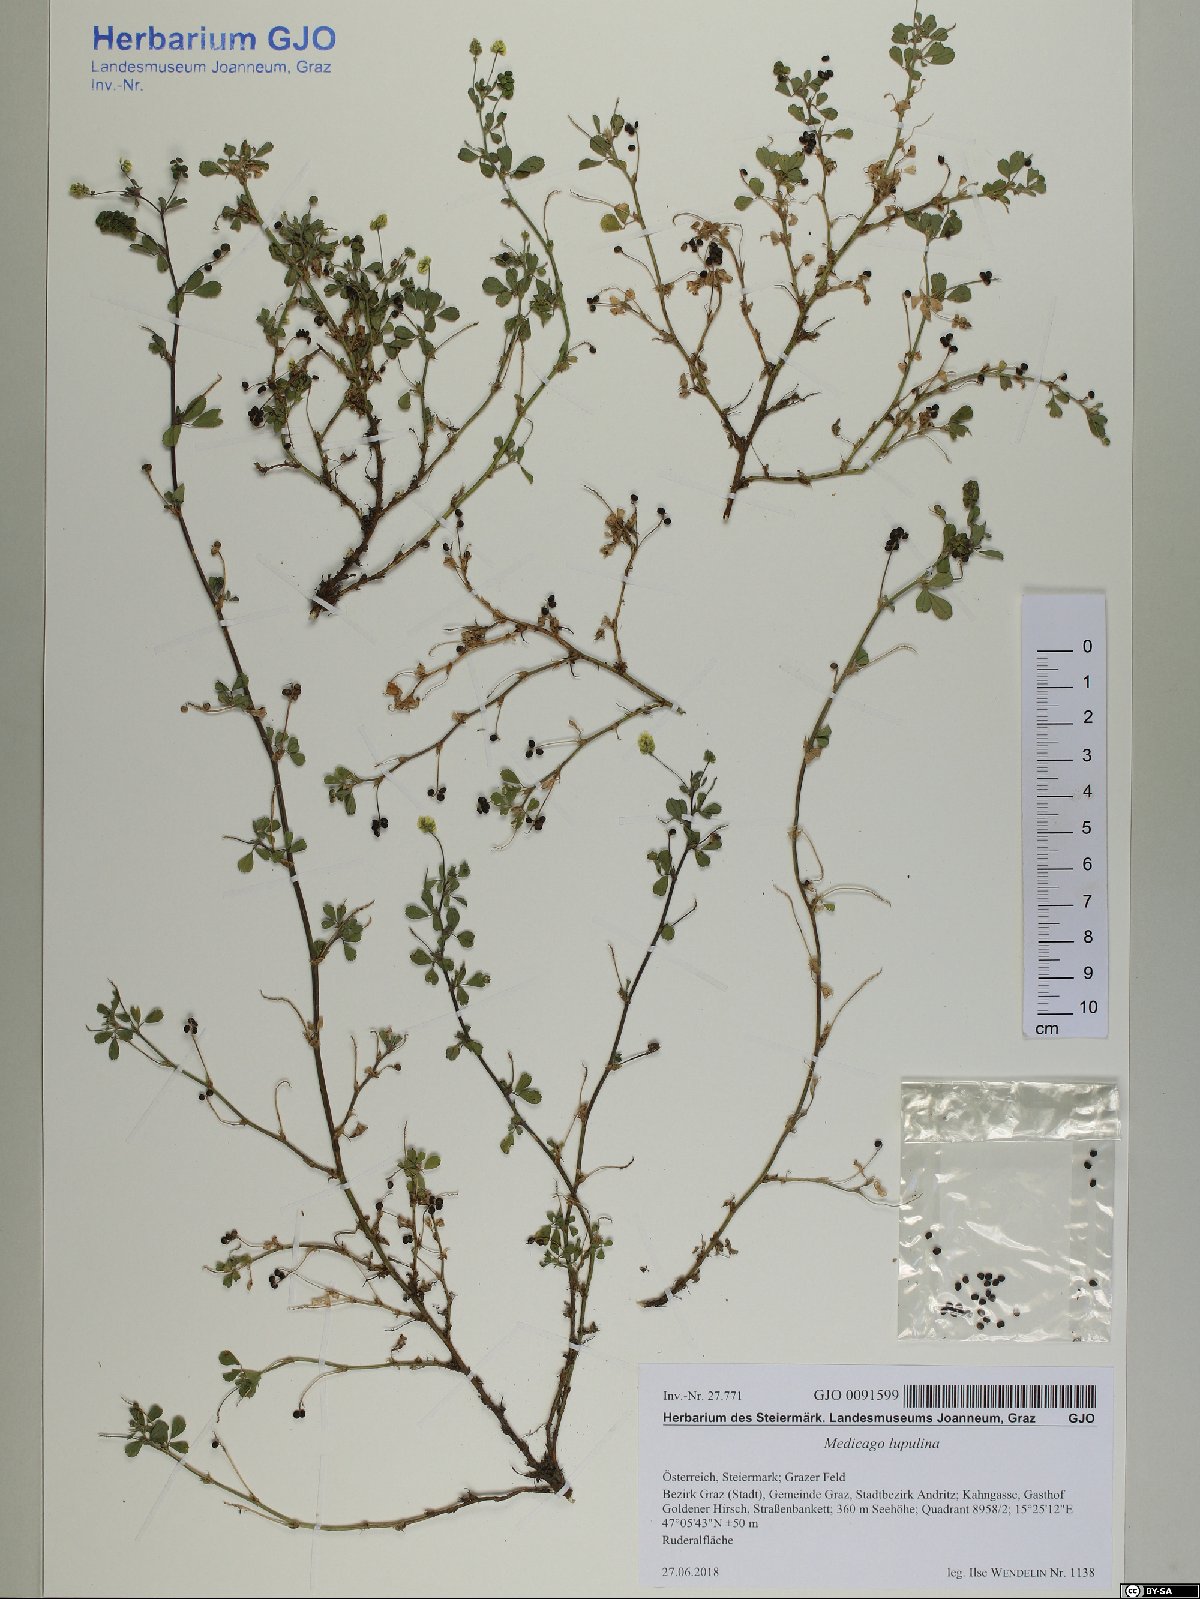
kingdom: Plantae
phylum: Tracheophyta
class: Magnoliopsida
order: Fabales
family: Fabaceae
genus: Medicago
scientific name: Medicago lupulina
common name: Black medick
